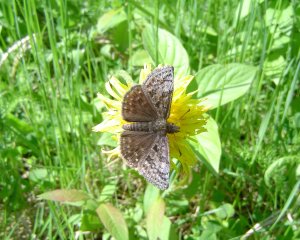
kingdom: Animalia
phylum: Arthropoda
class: Insecta
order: Lepidoptera
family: Hesperiidae
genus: Erynnis
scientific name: Erynnis icelus
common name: Dreamy Duskywing
